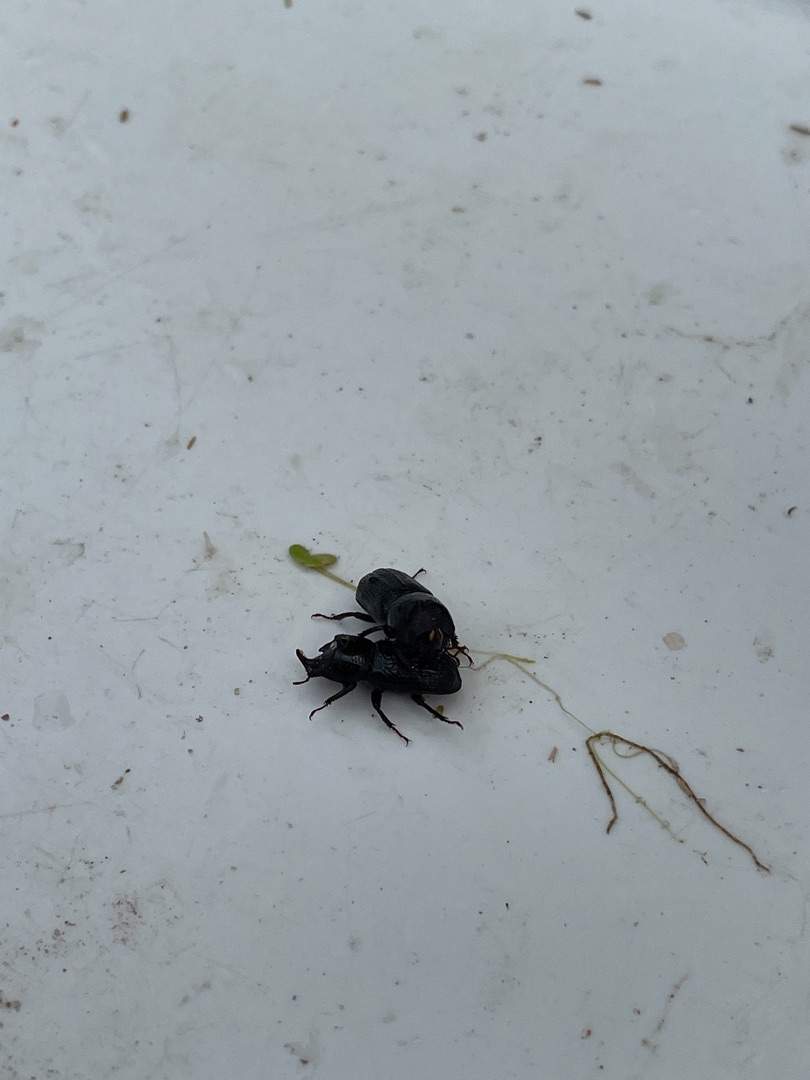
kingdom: Animalia
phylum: Arthropoda
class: Insecta
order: Coleoptera
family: Lucanidae
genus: Sinodendron
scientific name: Sinodendron cylindricum
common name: Valsehjort
